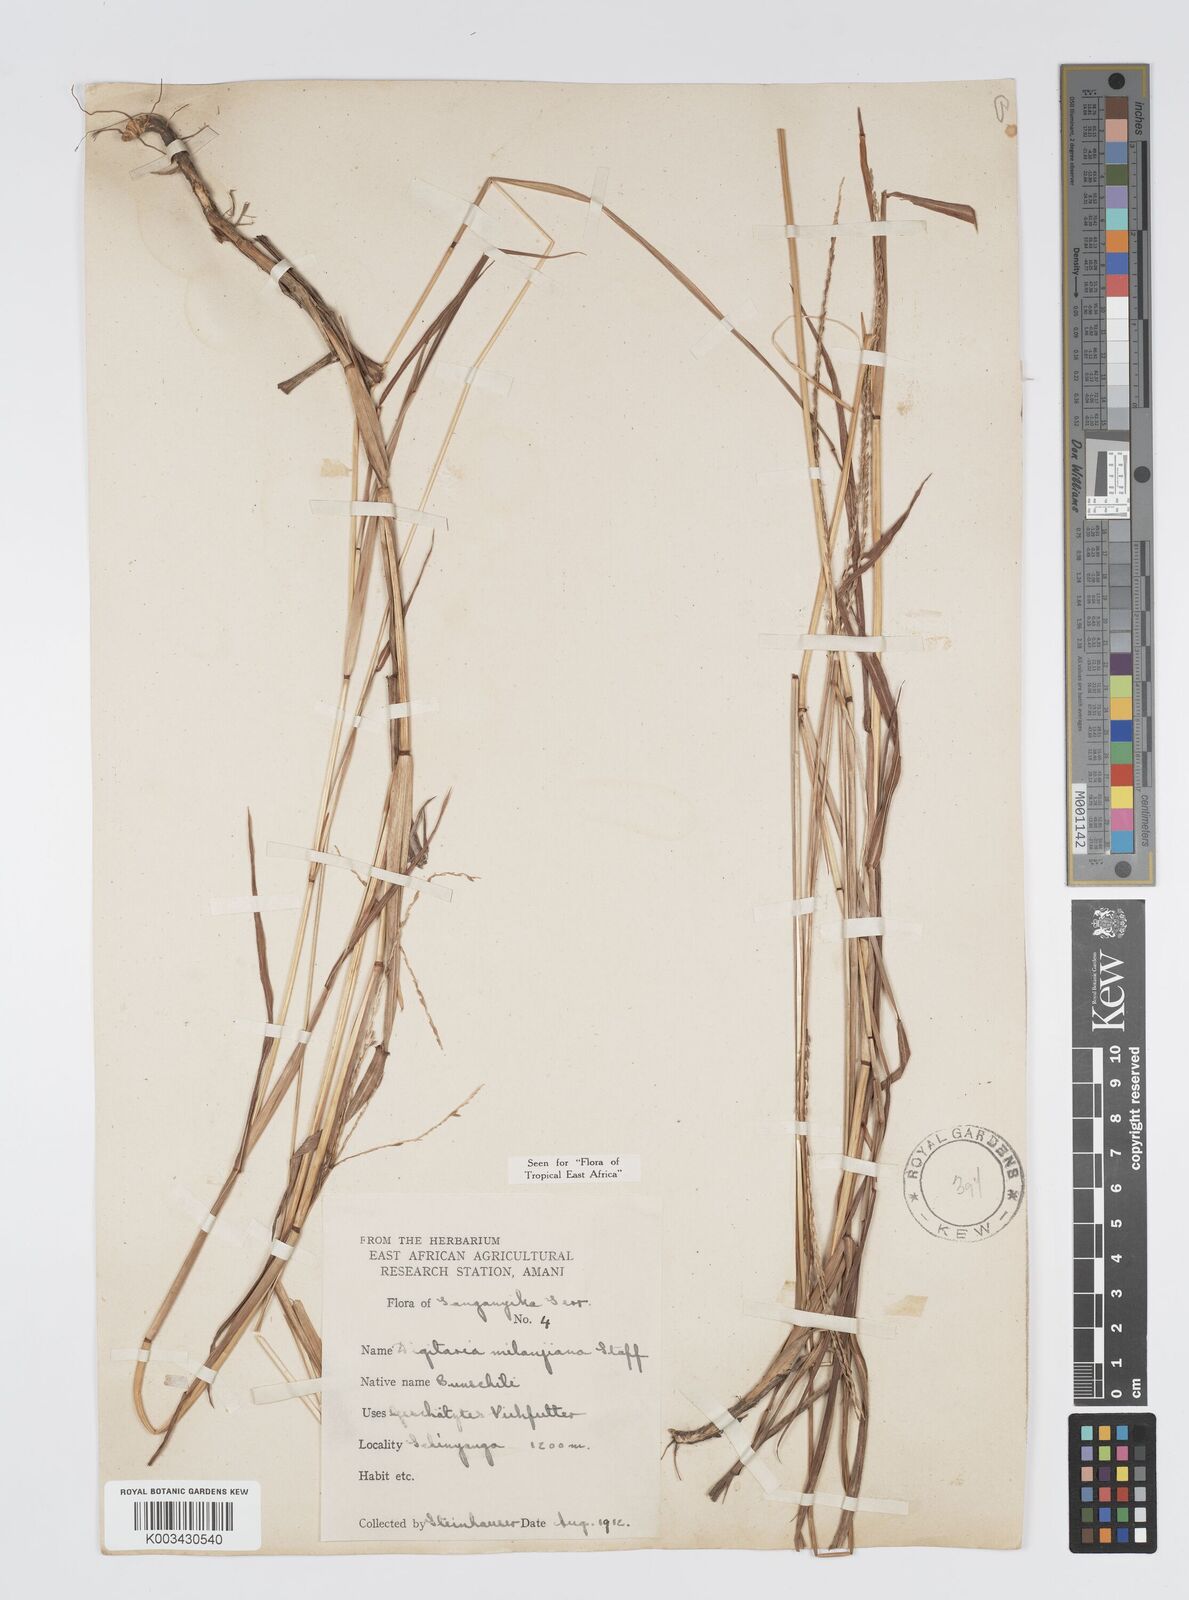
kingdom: Plantae
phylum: Tracheophyta
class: Liliopsida
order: Poales
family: Poaceae
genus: Digitaria
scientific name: Digitaria milanjiana
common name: Madagascar crabgrass
